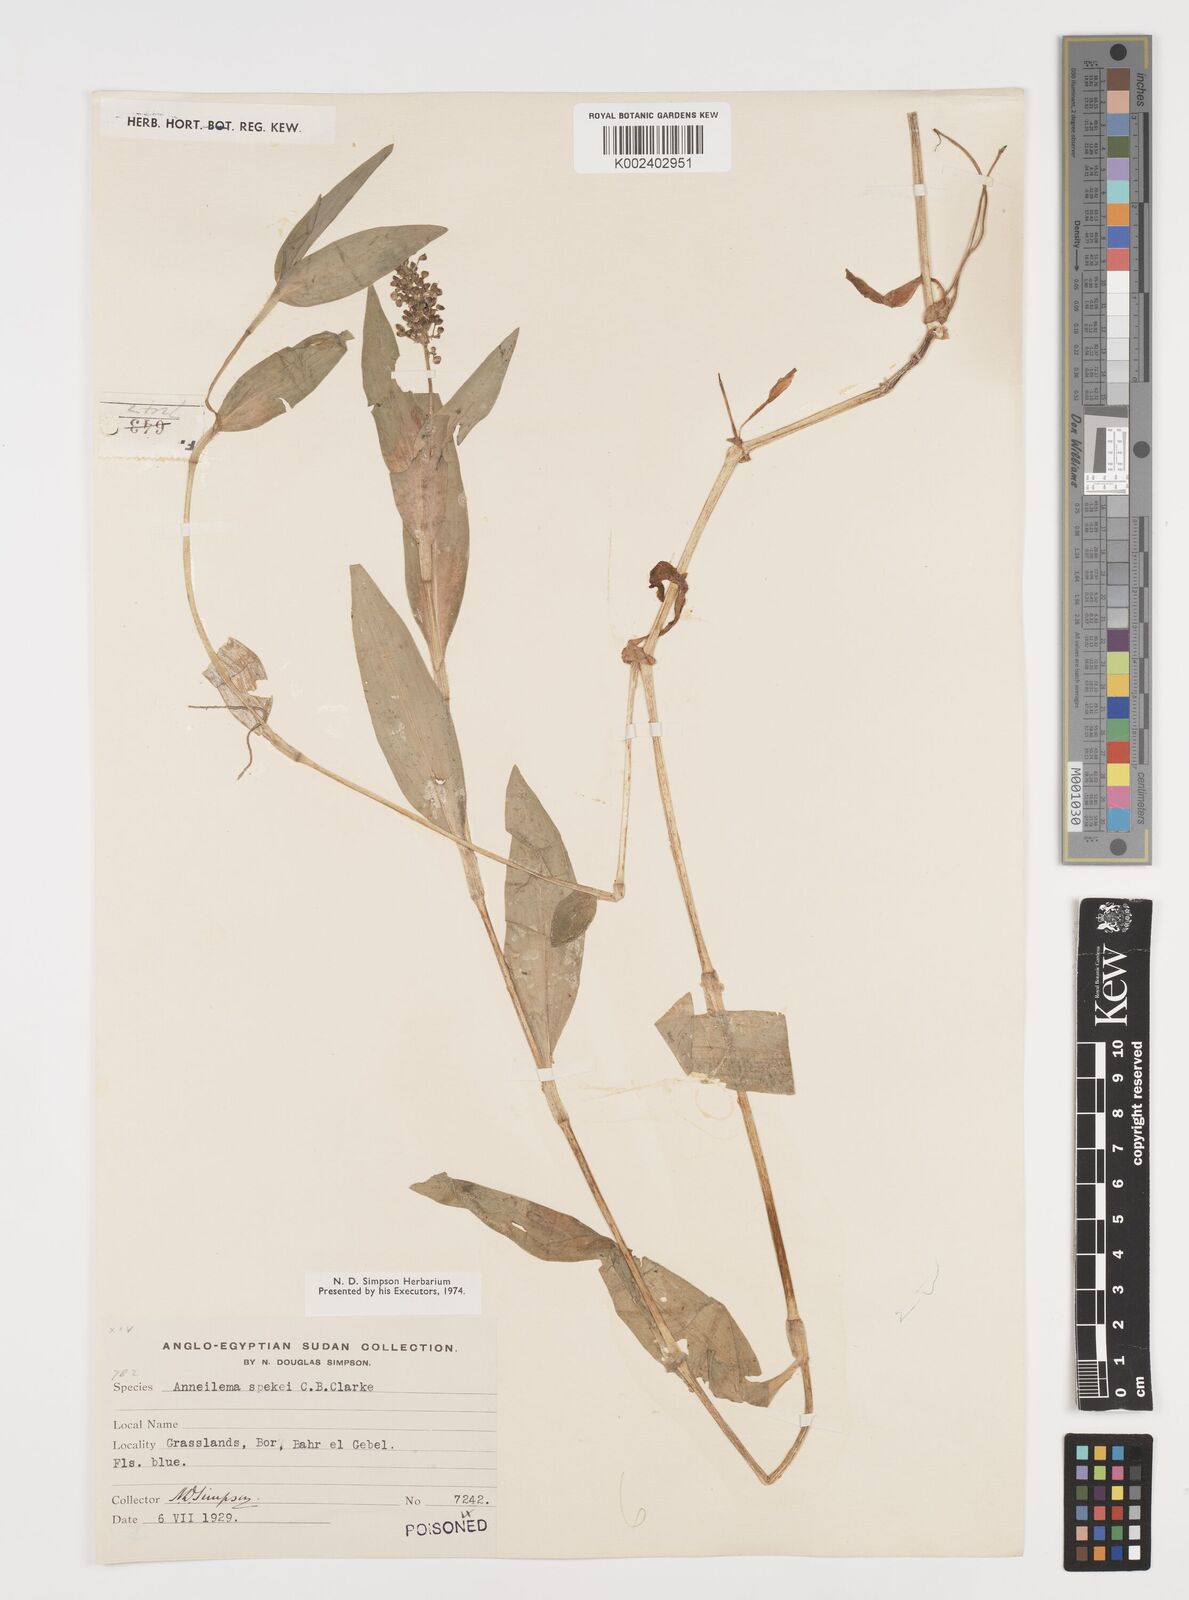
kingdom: Plantae
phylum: Tracheophyta
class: Liliopsida
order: Commelinales
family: Commelinaceae
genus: Aneilema
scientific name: Aneilema spekei
